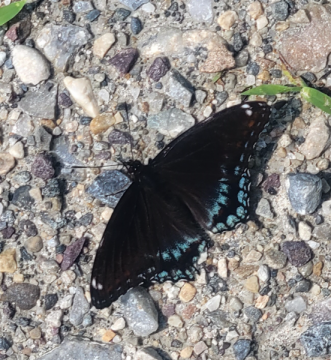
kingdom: Animalia
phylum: Arthropoda
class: Insecta
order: Lepidoptera
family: Nymphalidae
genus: Limenitis
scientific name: Limenitis arthemis
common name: Red-spotted Admiral
